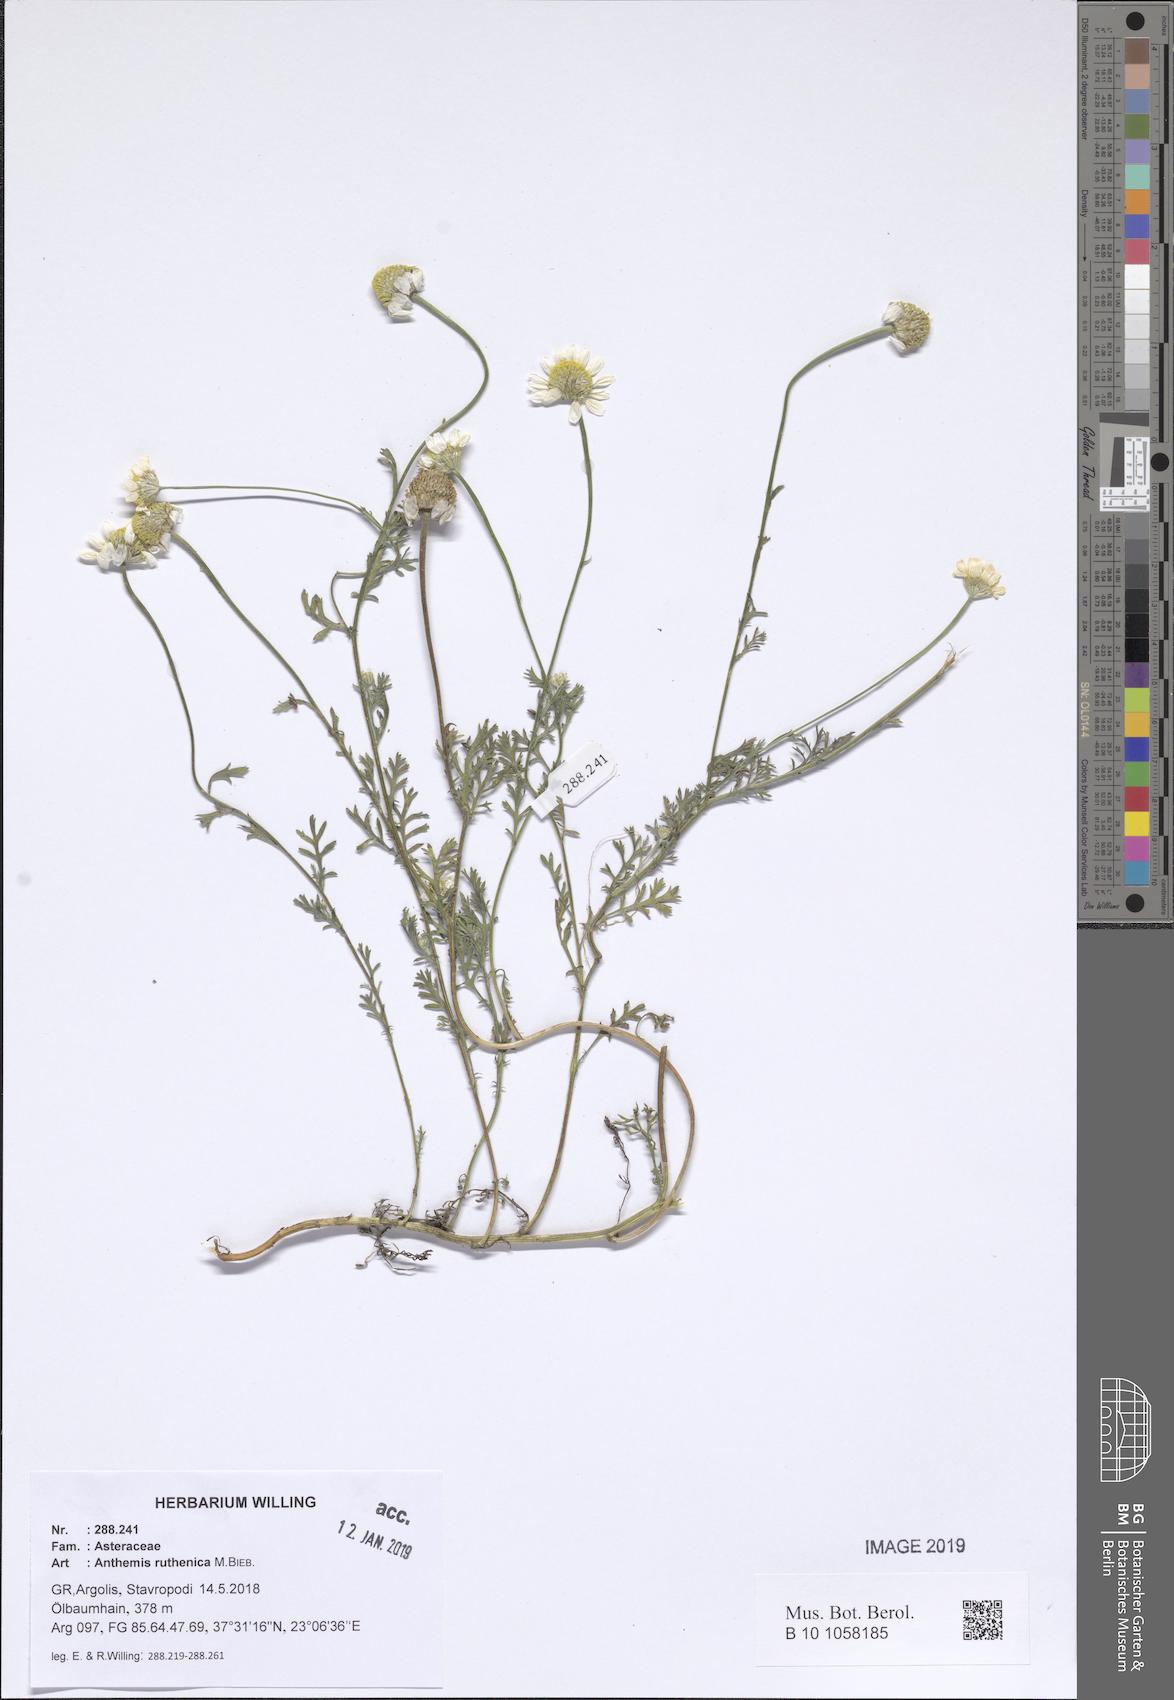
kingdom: Plantae
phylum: Tracheophyta
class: Magnoliopsida
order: Asterales
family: Asteraceae
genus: Anthemis
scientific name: Anthemis ruthenica
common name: Eastern chamomile
